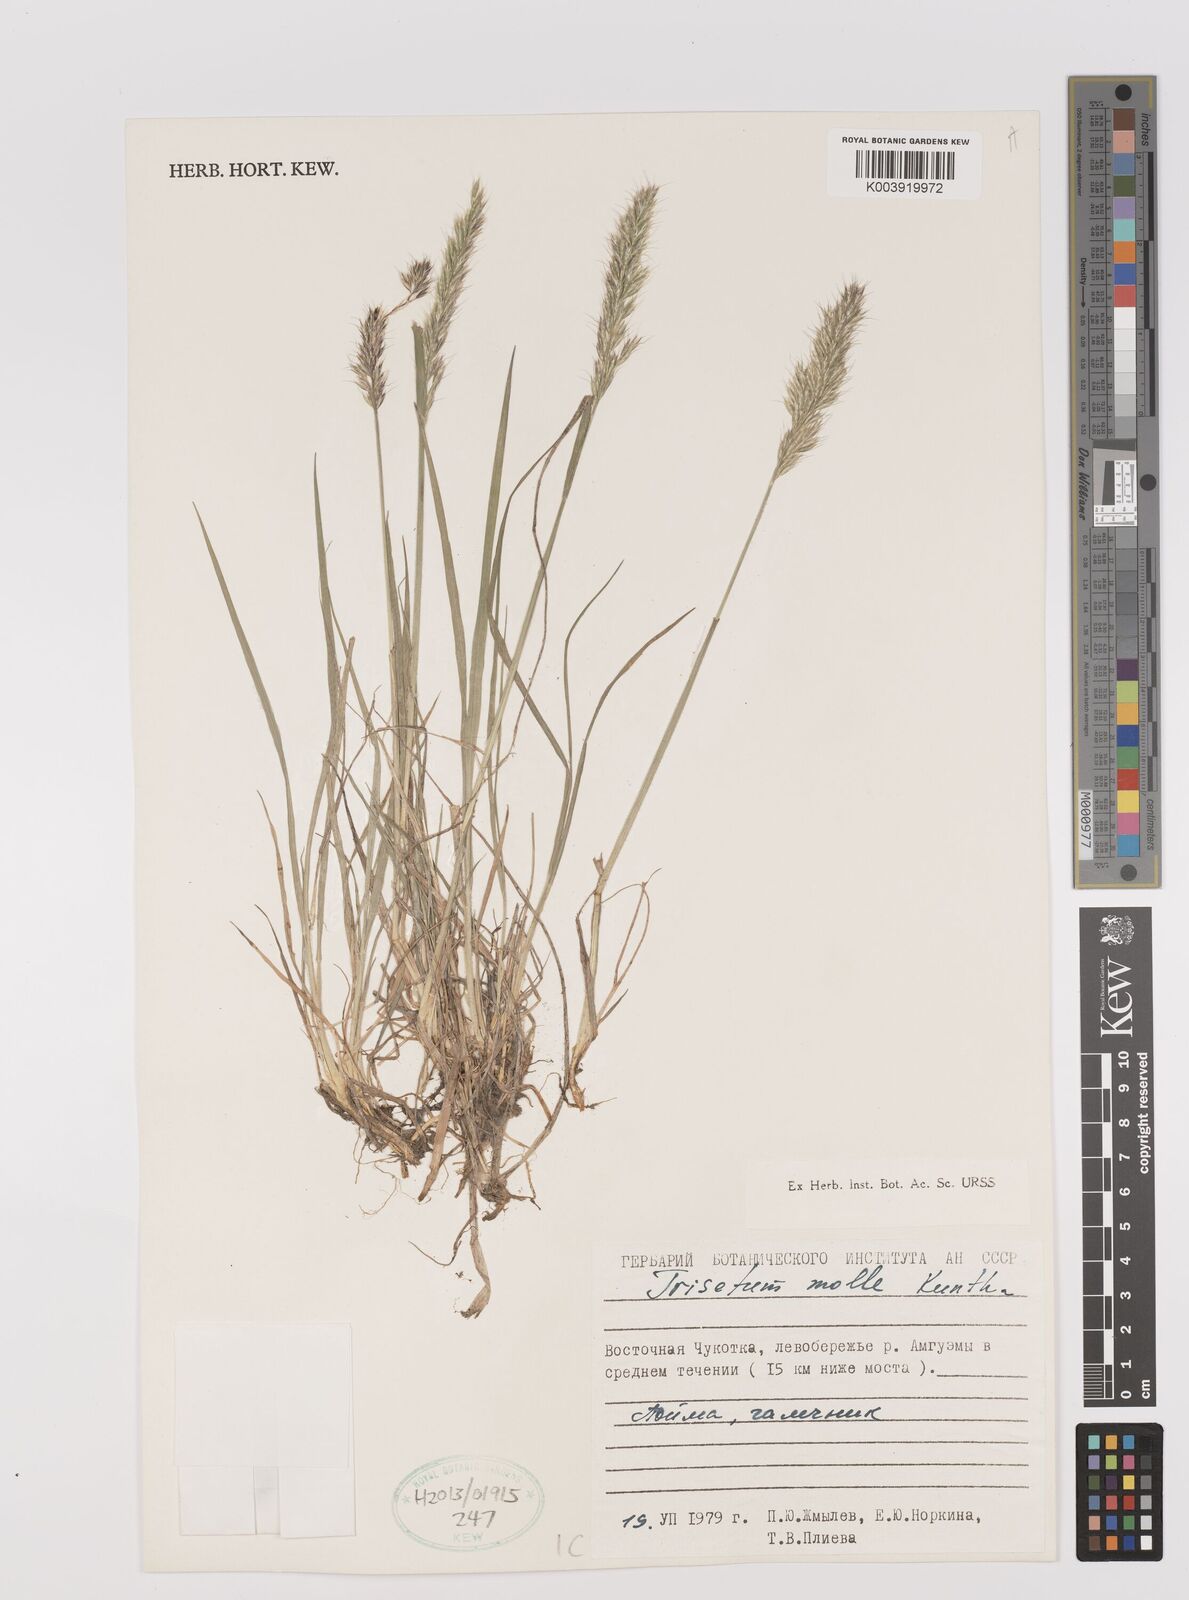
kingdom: Plantae
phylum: Tracheophyta
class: Liliopsida
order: Poales
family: Poaceae
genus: Koeleria
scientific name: Koeleria spicata
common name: Mountain trisetum
